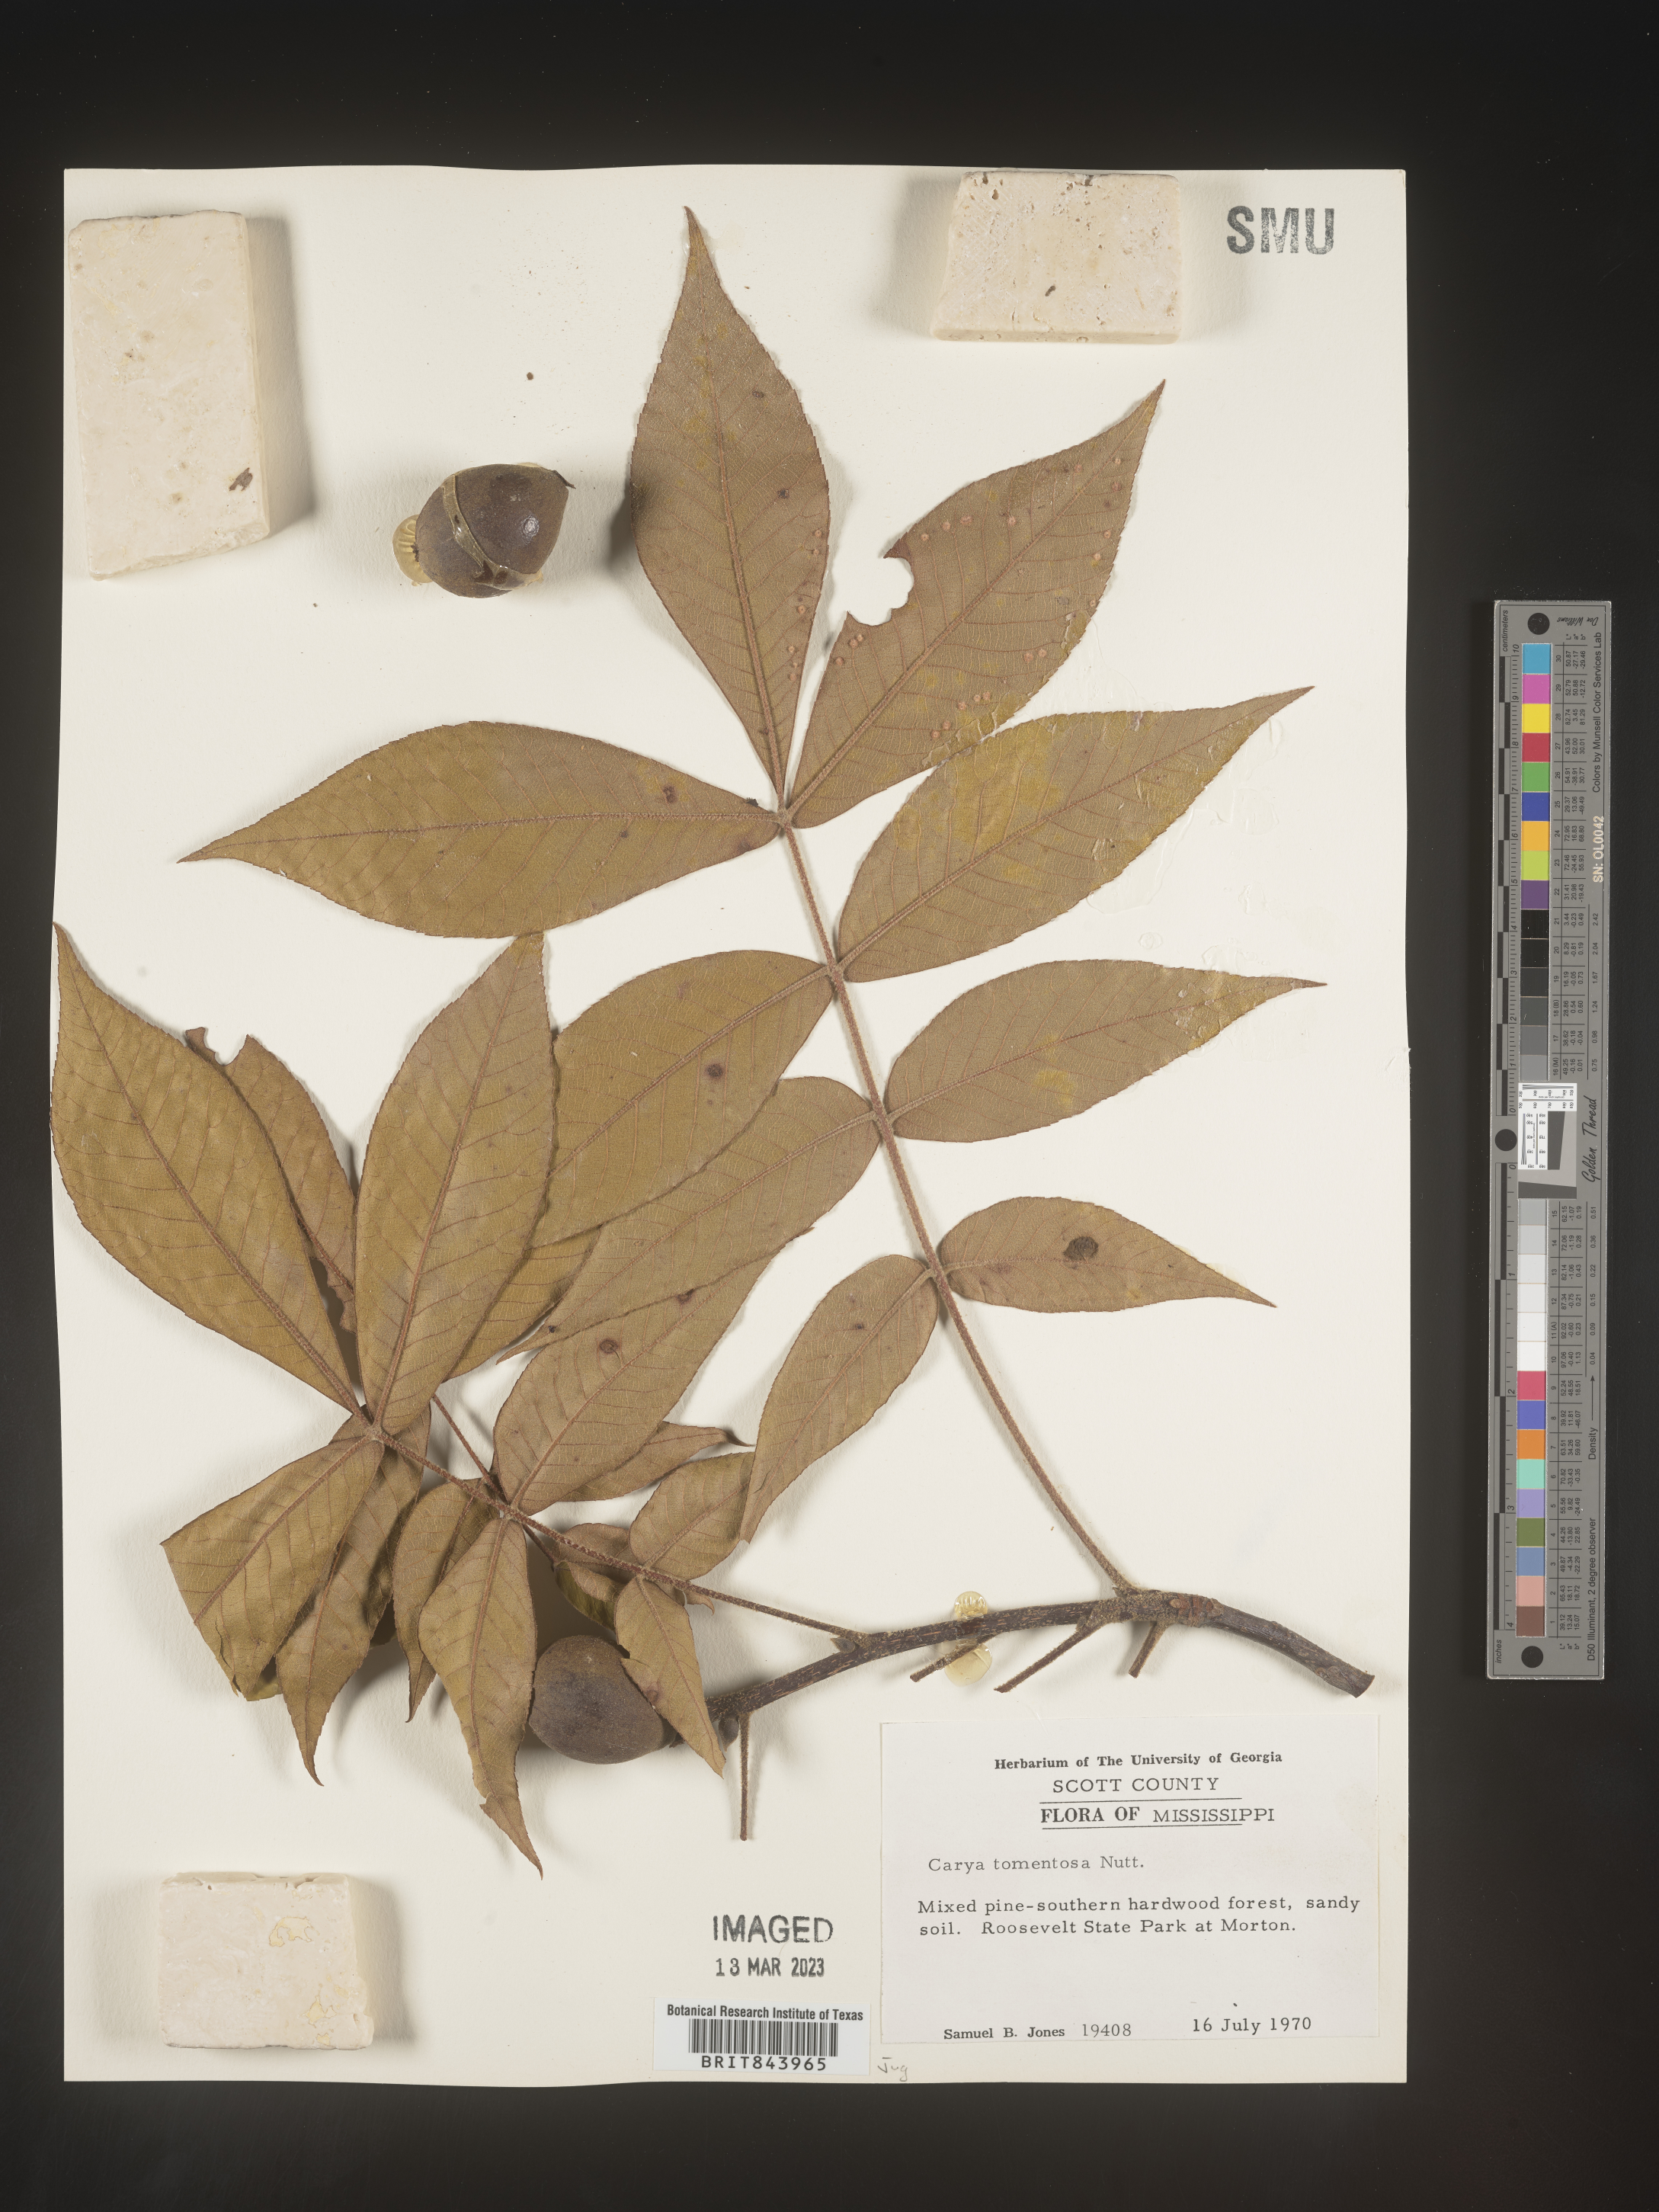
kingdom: Plantae
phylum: Tracheophyta
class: Magnoliopsida
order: Fagales
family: Juglandaceae
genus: Carya
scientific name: Carya alba
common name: Mockernut hickory
